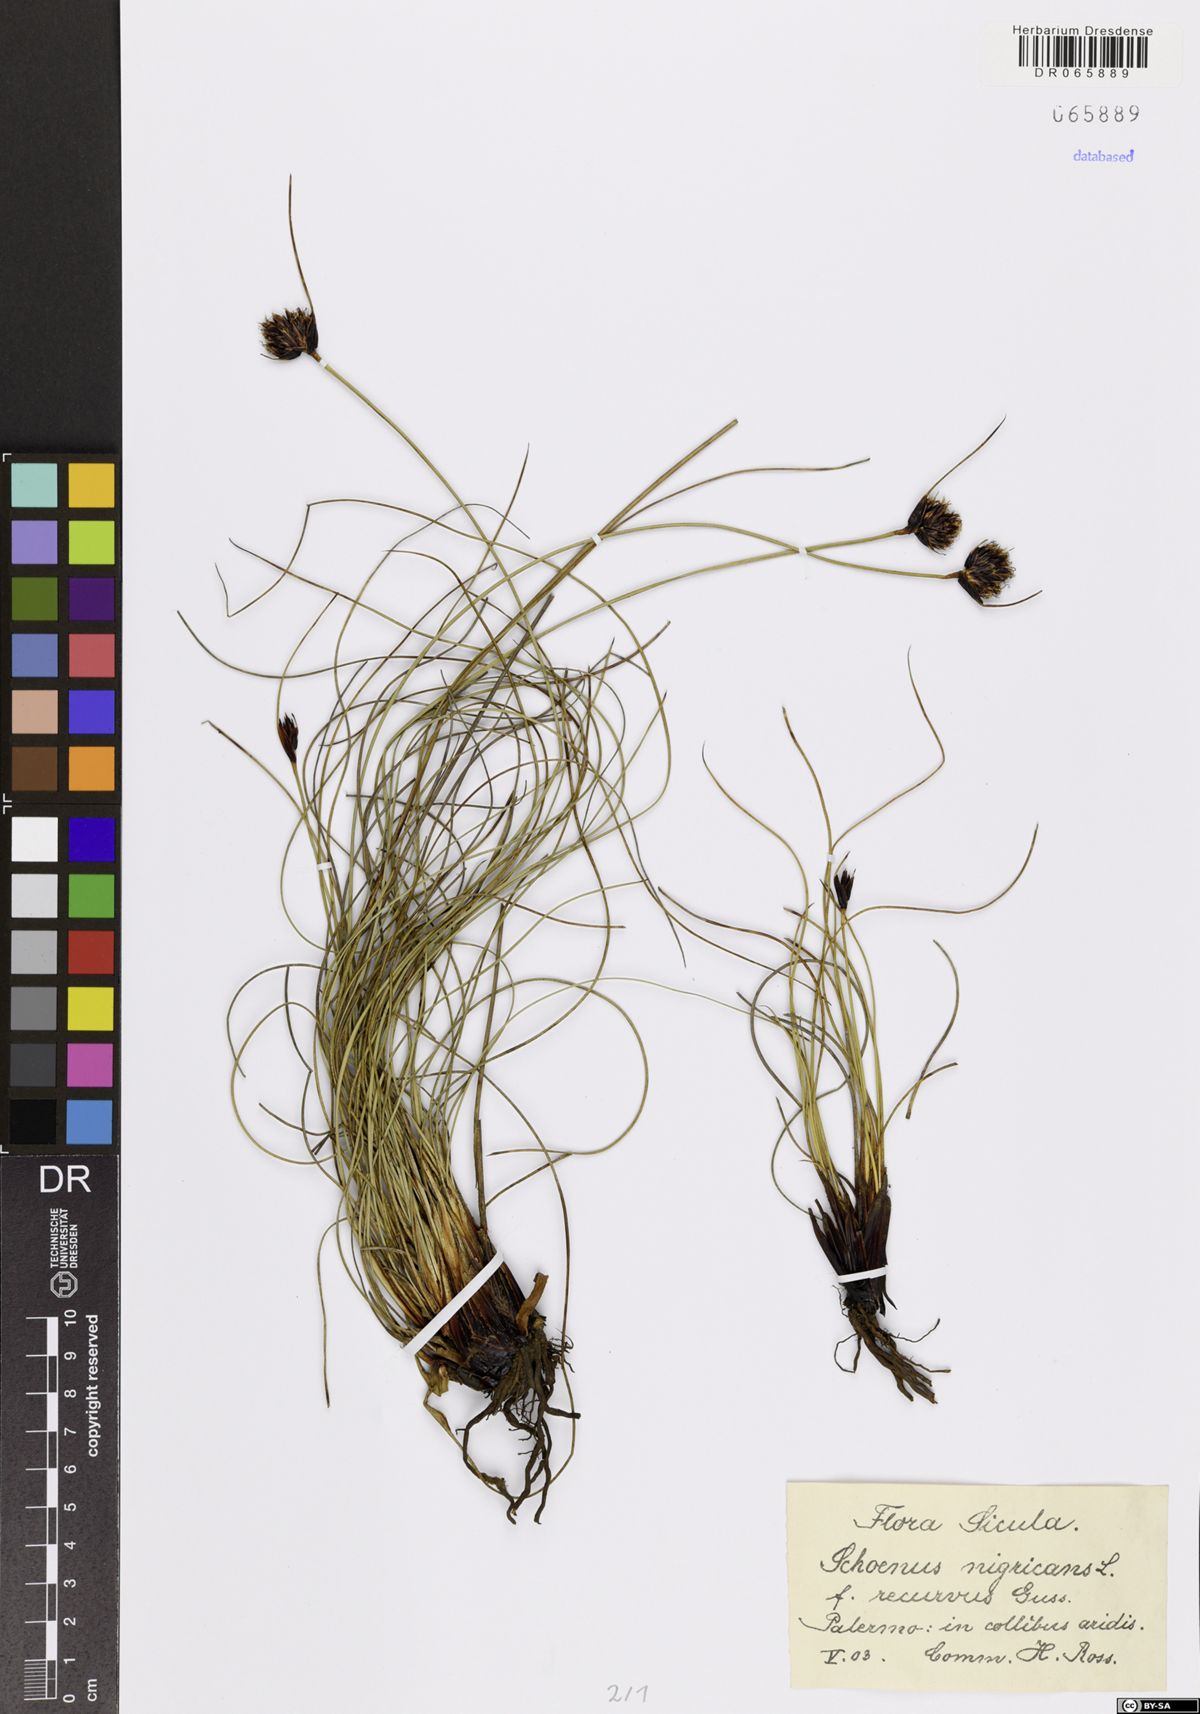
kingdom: Plantae
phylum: Tracheophyta
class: Liliopsida
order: Poales
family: Cyperaceae
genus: Schoenus
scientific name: Schoenus nigricans
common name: Black bog-rush
